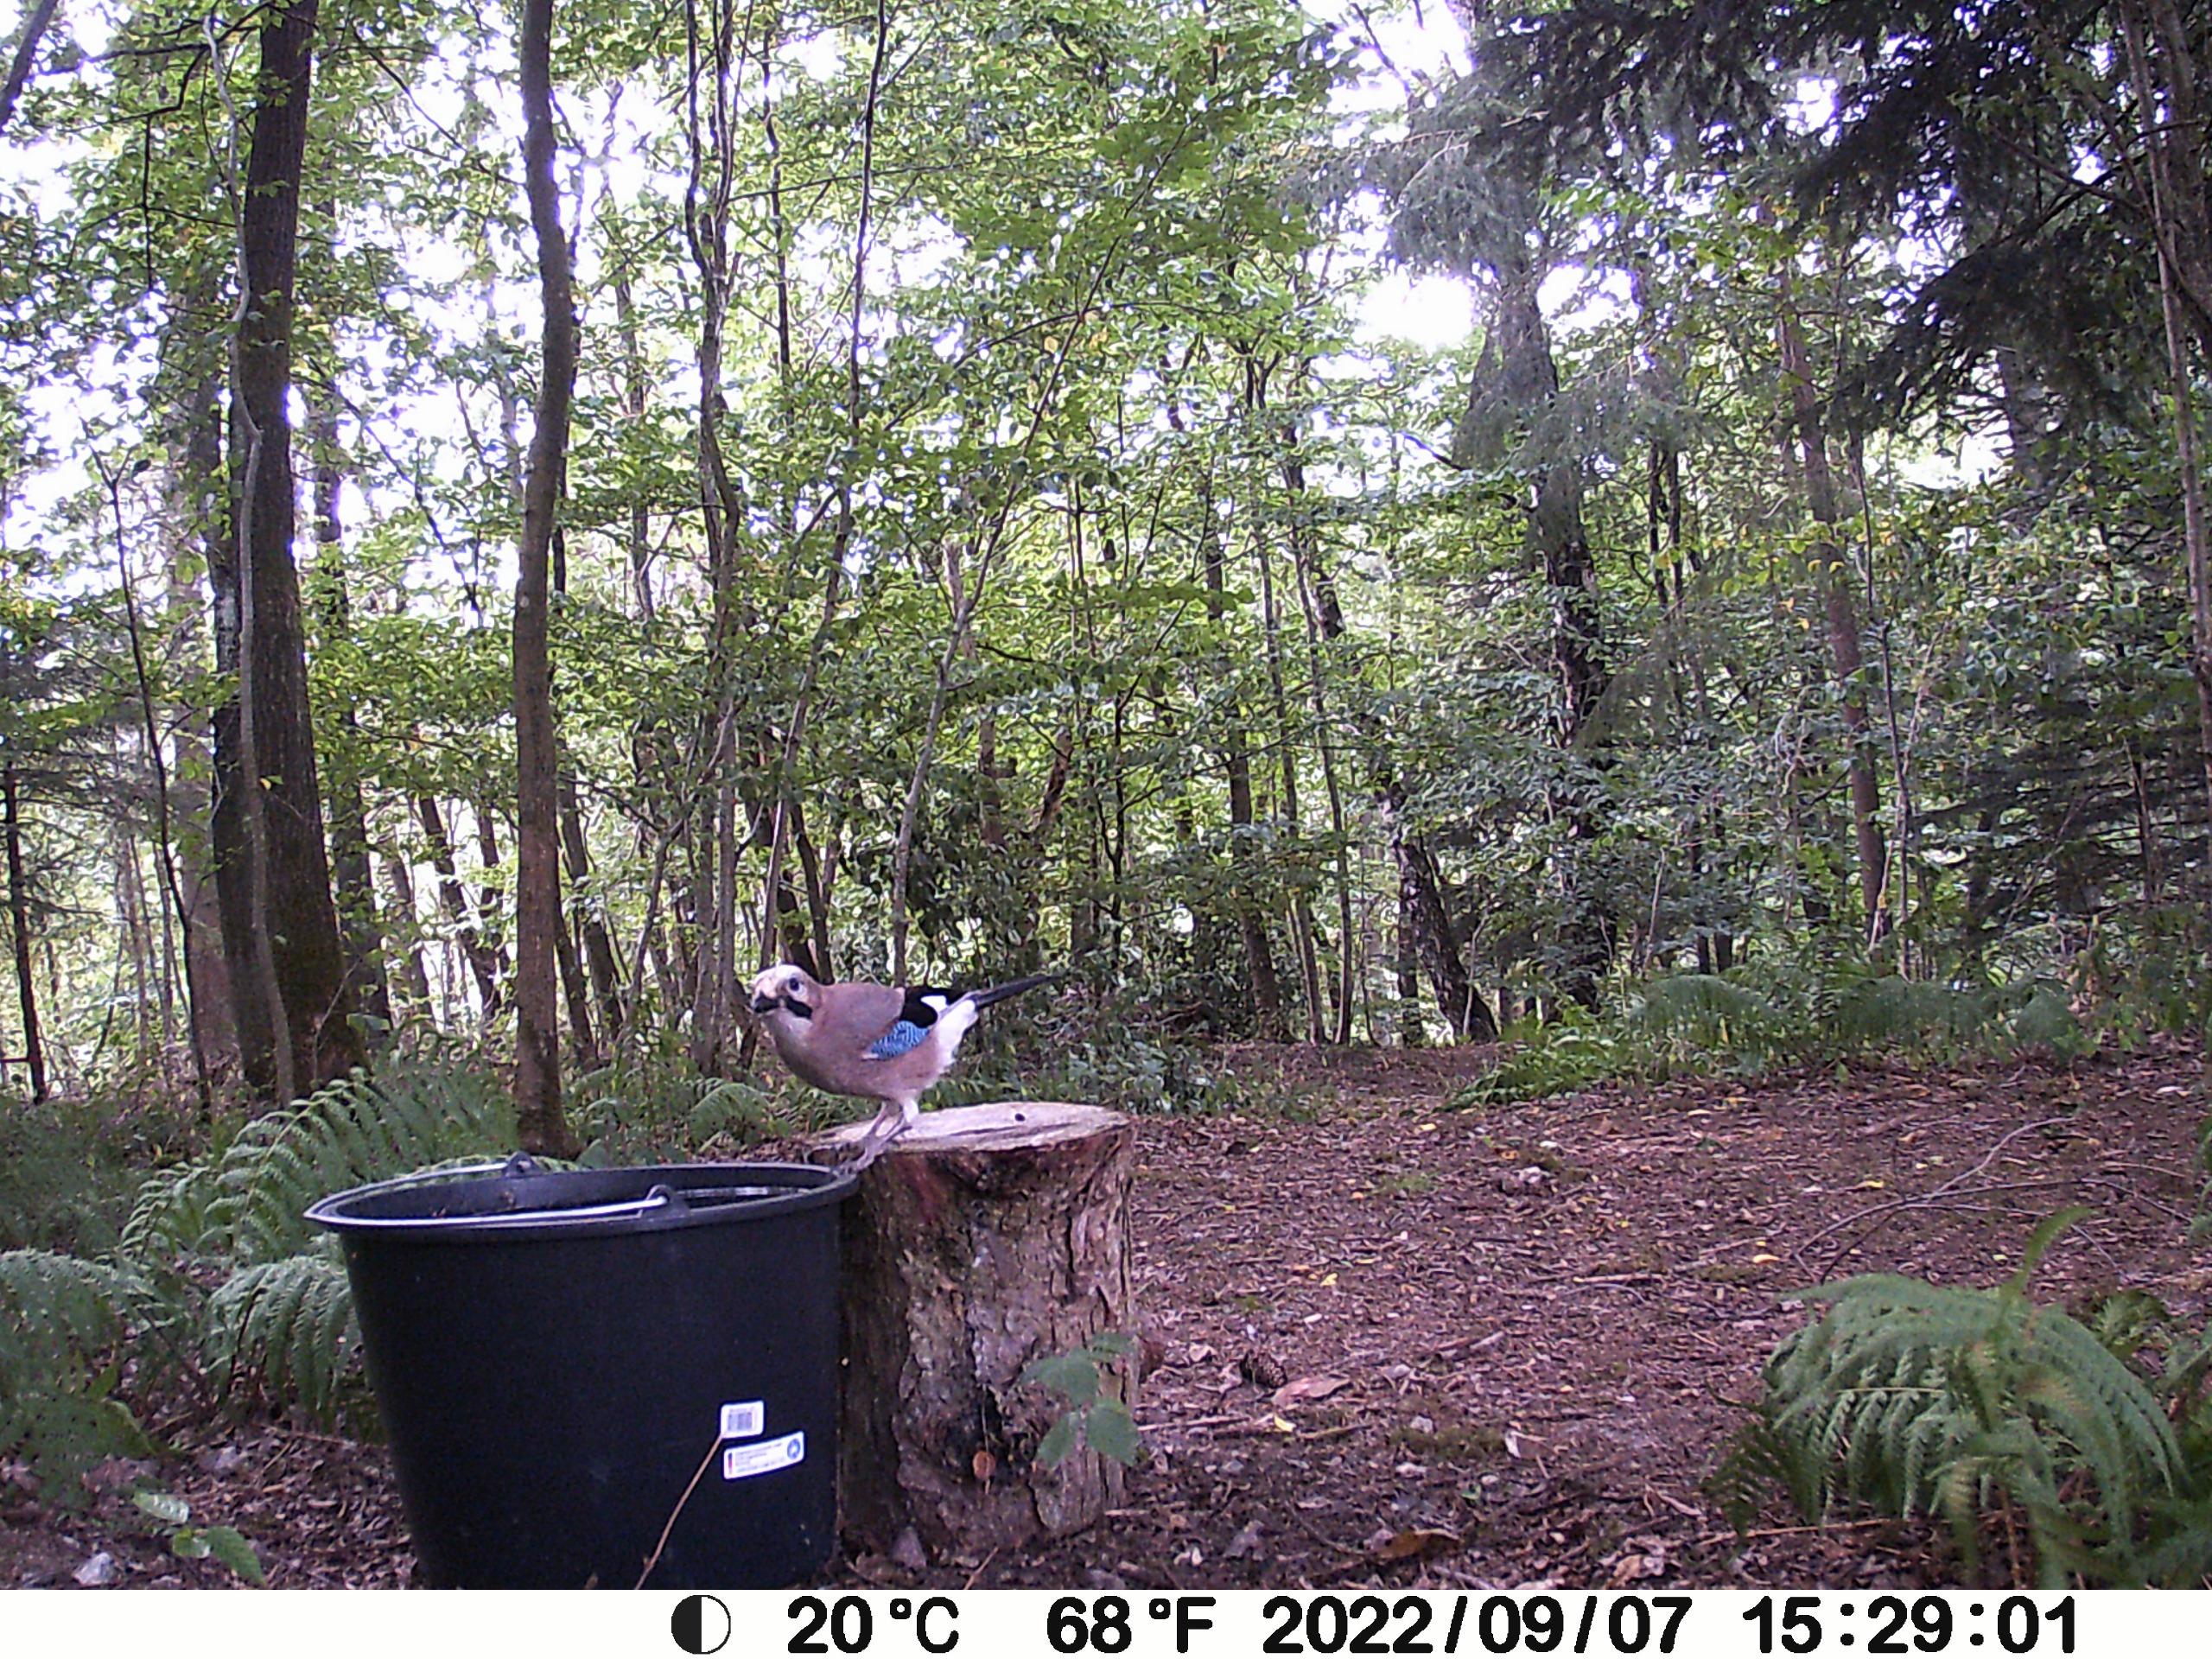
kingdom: Animalia
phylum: Chordata
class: Aves
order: Passeriformes
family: Corvidae
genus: Garrulus
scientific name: Garrulus glandarius
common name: Skovskade
